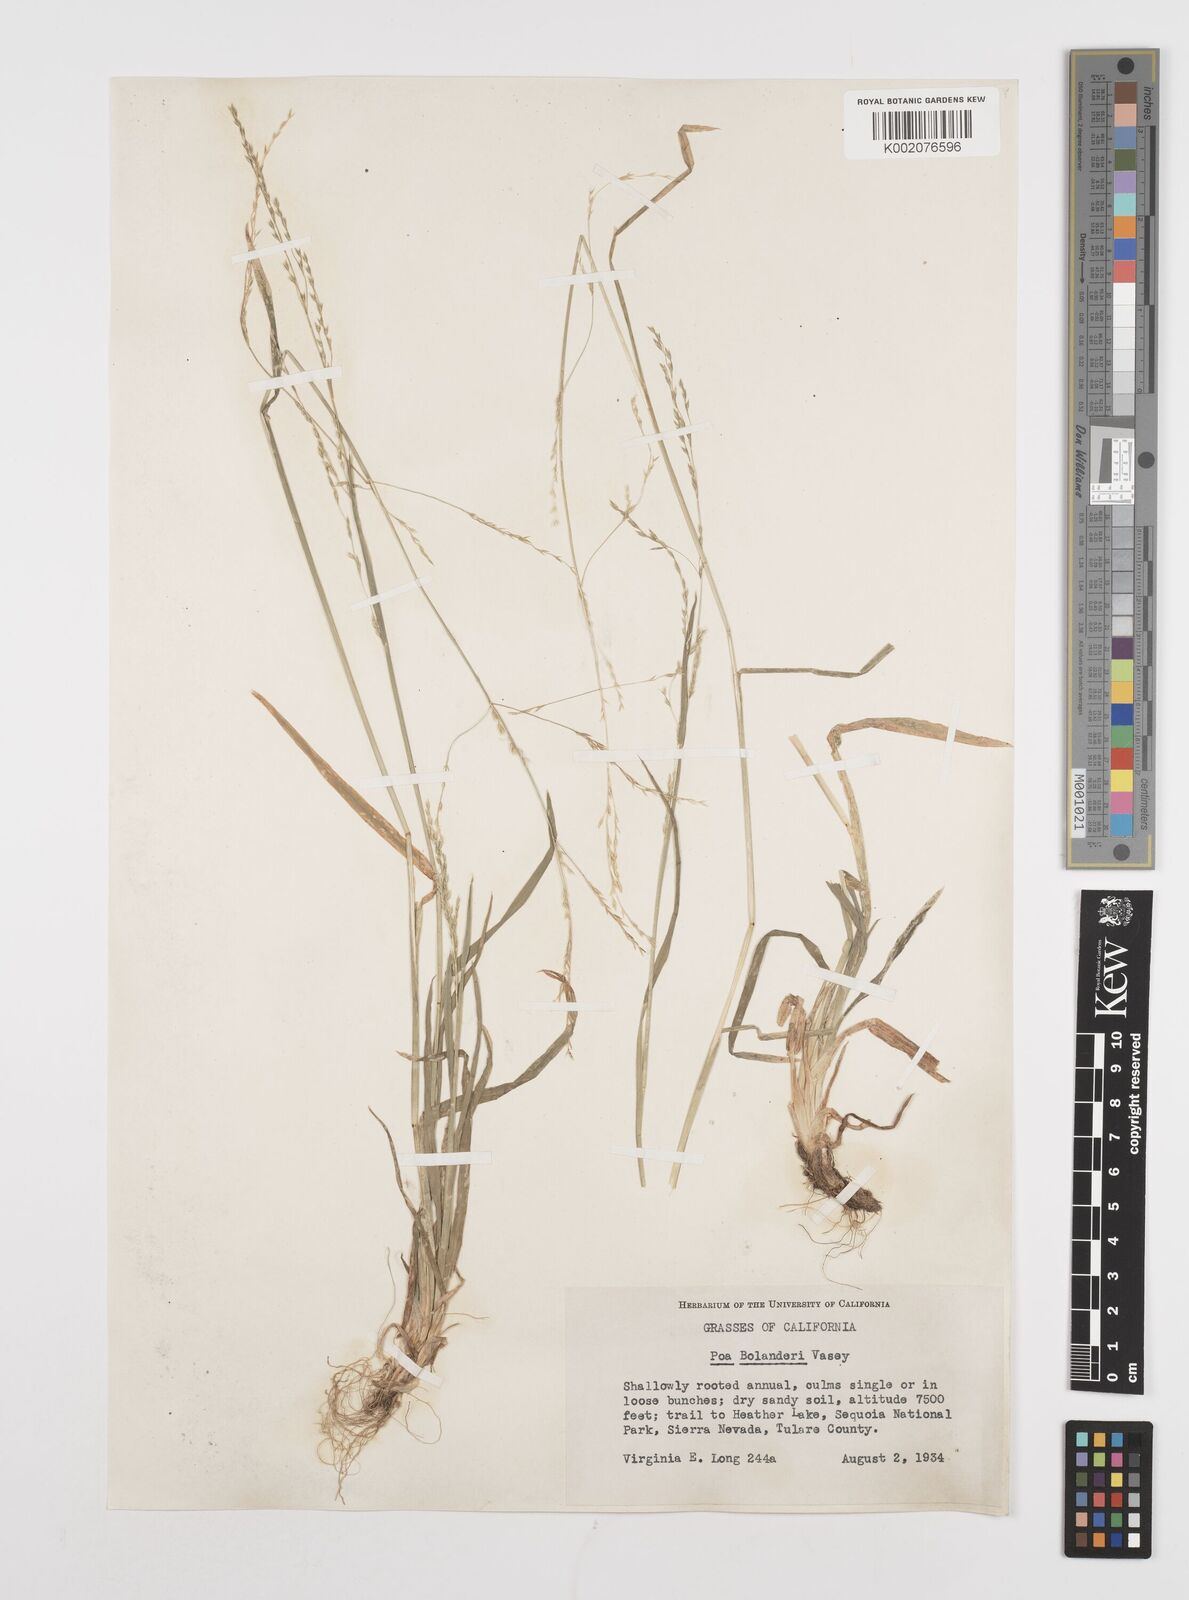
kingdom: Plantae
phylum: Tracheophyta
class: Liliopsida
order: Poales
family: Poaceae
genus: Poa
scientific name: Poa bolanderi
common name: Bolander's bluegrass
